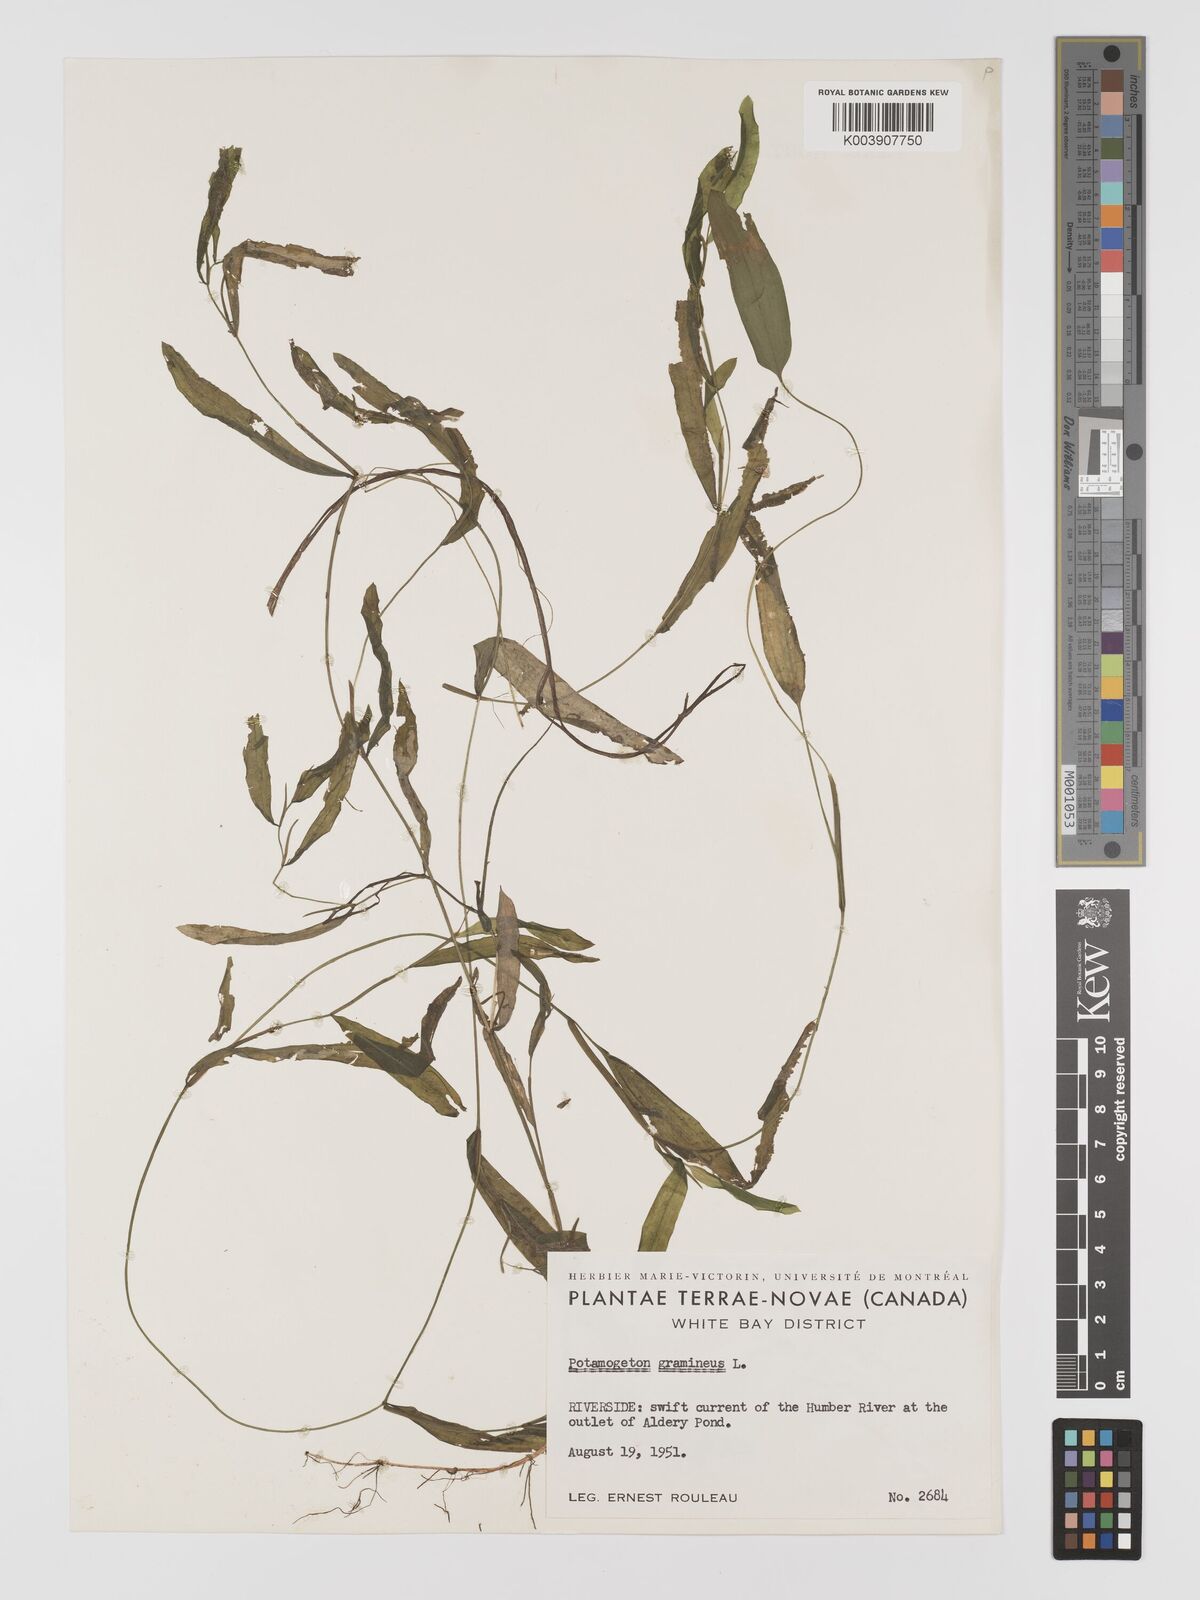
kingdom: Plantae
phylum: Tracheophyta
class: Liliopsida
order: Alismatales
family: Potamogetonaceae
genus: Potamogeton
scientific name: Potamogeton gramineus
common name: Various-leaved pondweed
